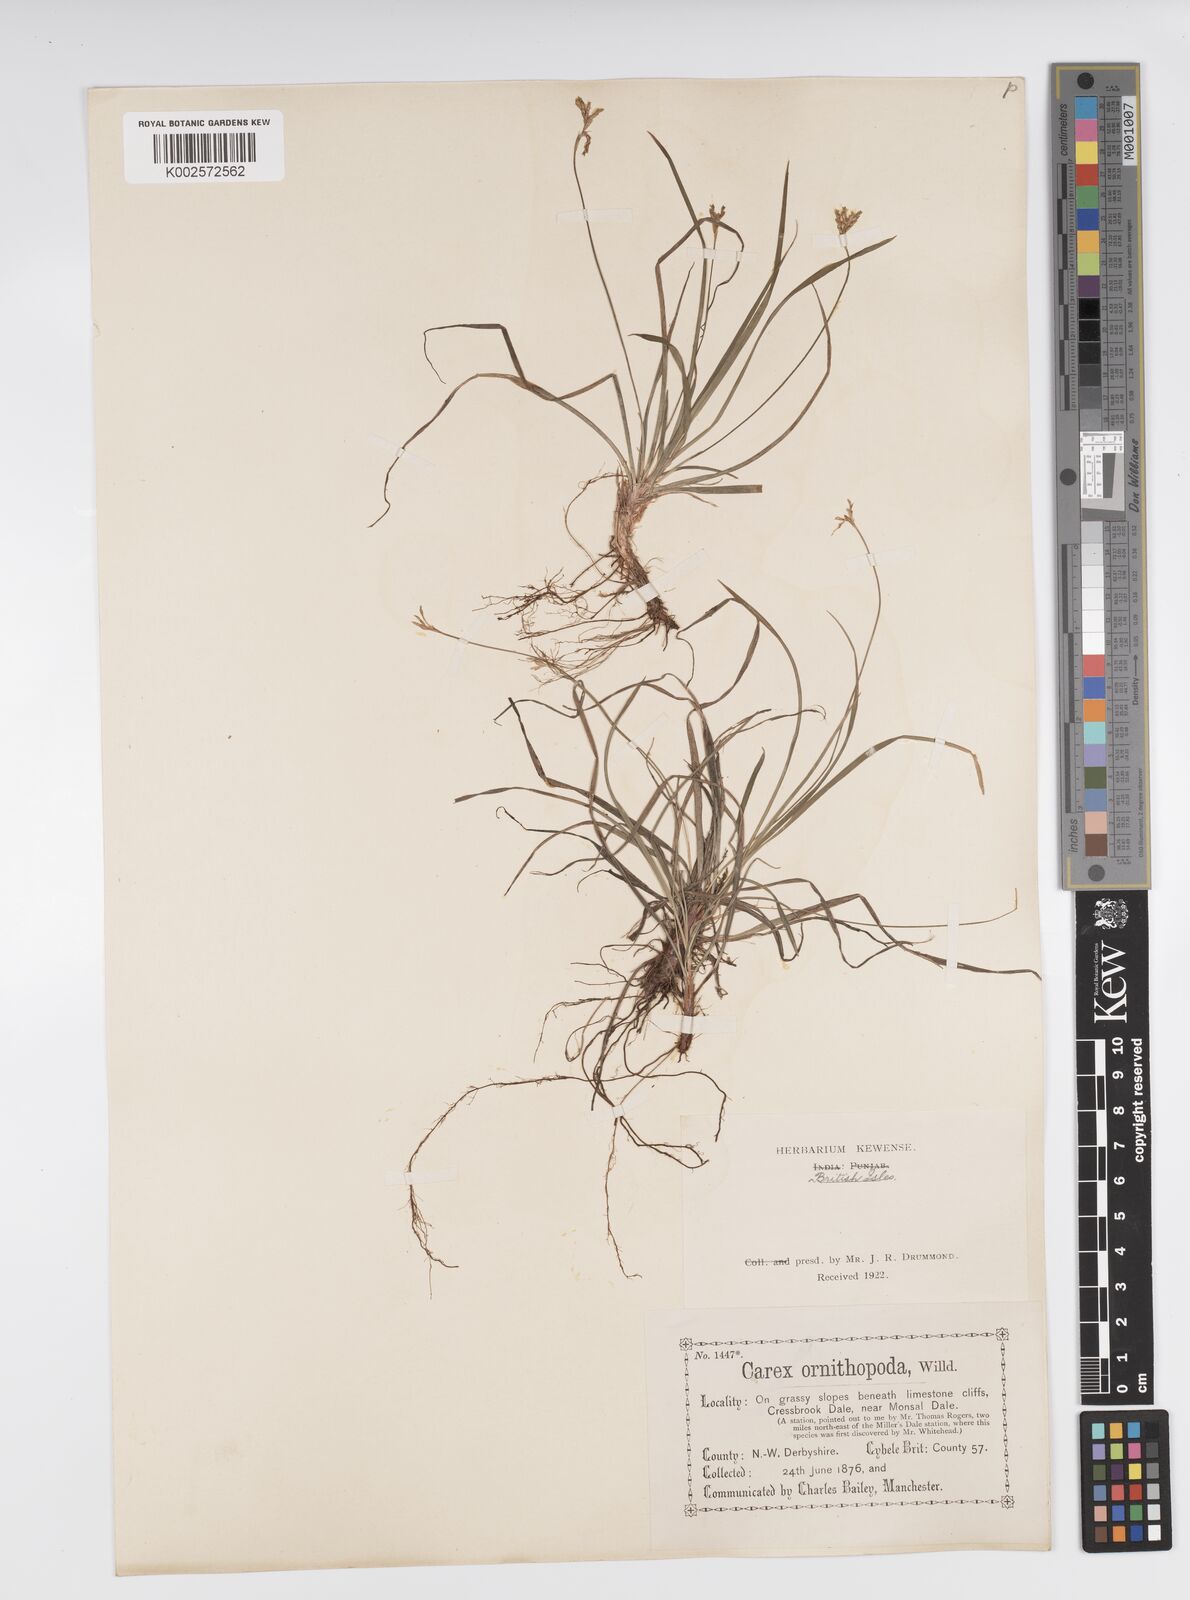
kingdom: Plantae
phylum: Tracheophyta
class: Liliopsida
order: Poales
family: Cyperaceae
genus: Carex
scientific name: Carex ornithopoda
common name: Bird's-foot sedge
